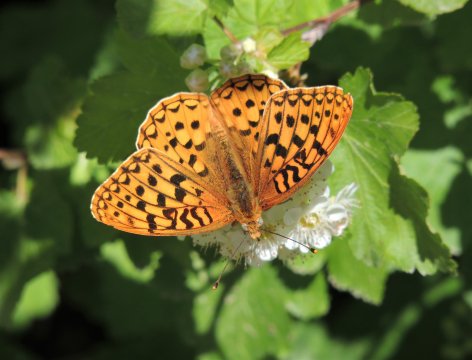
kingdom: Animalia
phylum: Arthropoda
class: Insecta
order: Lepidoptera
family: Nymphalidae
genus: Speyeria
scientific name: Speyeria coronis
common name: Coronis Fritillary
